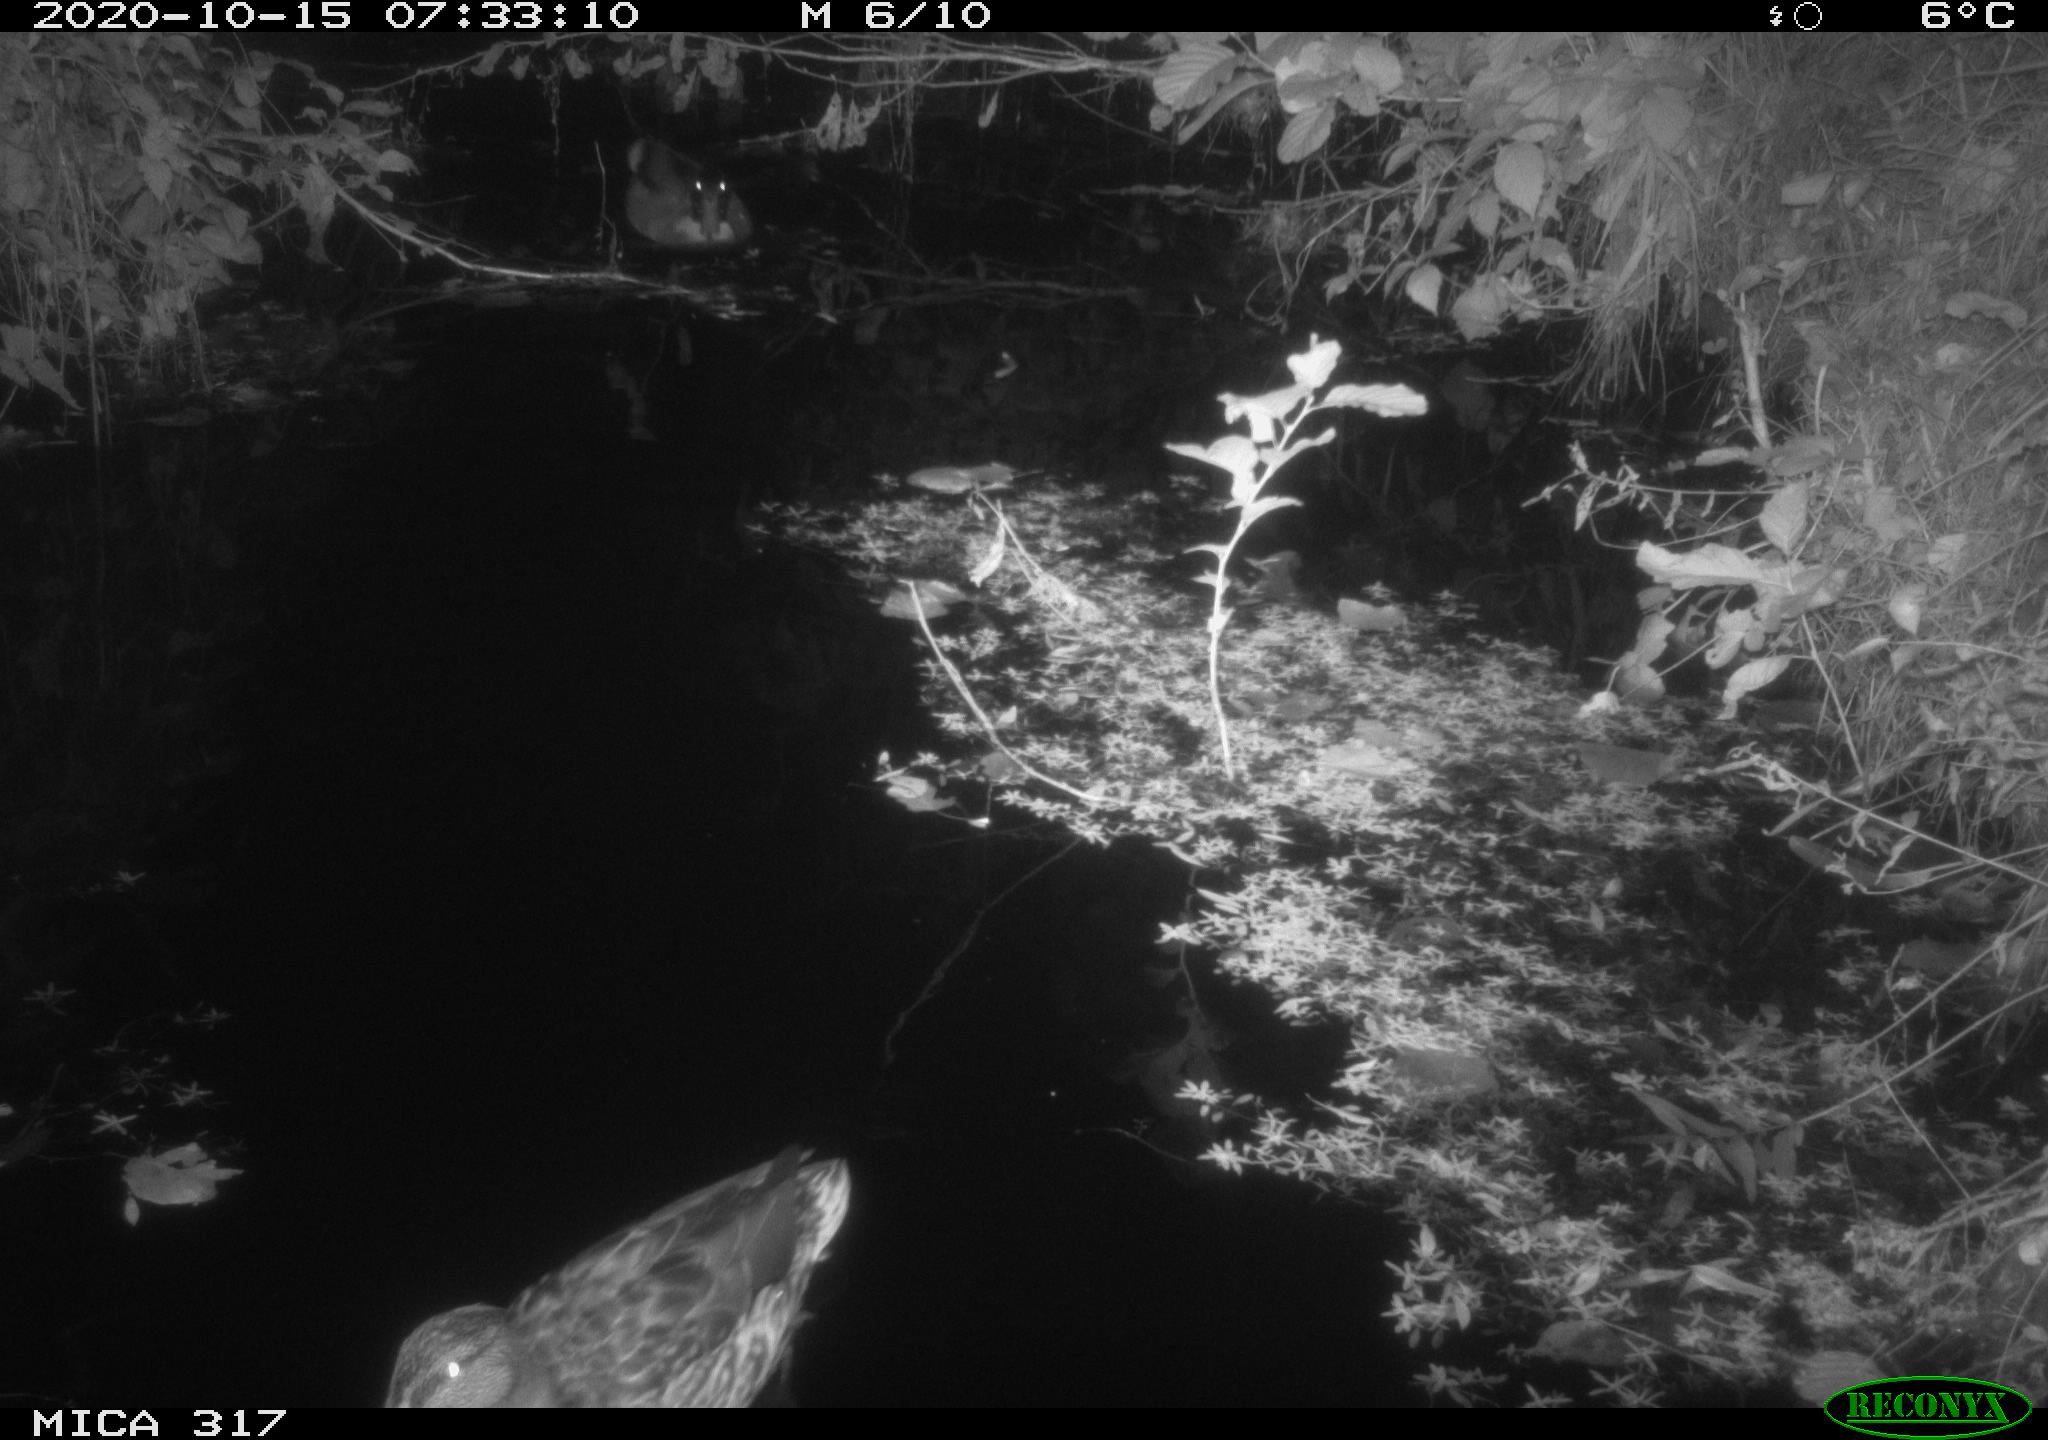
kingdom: Animalia
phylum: Chordata
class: Aves
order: Anseriformes
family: Anatidae
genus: Anas
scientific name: Anas platyrhynchos
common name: Mallard
